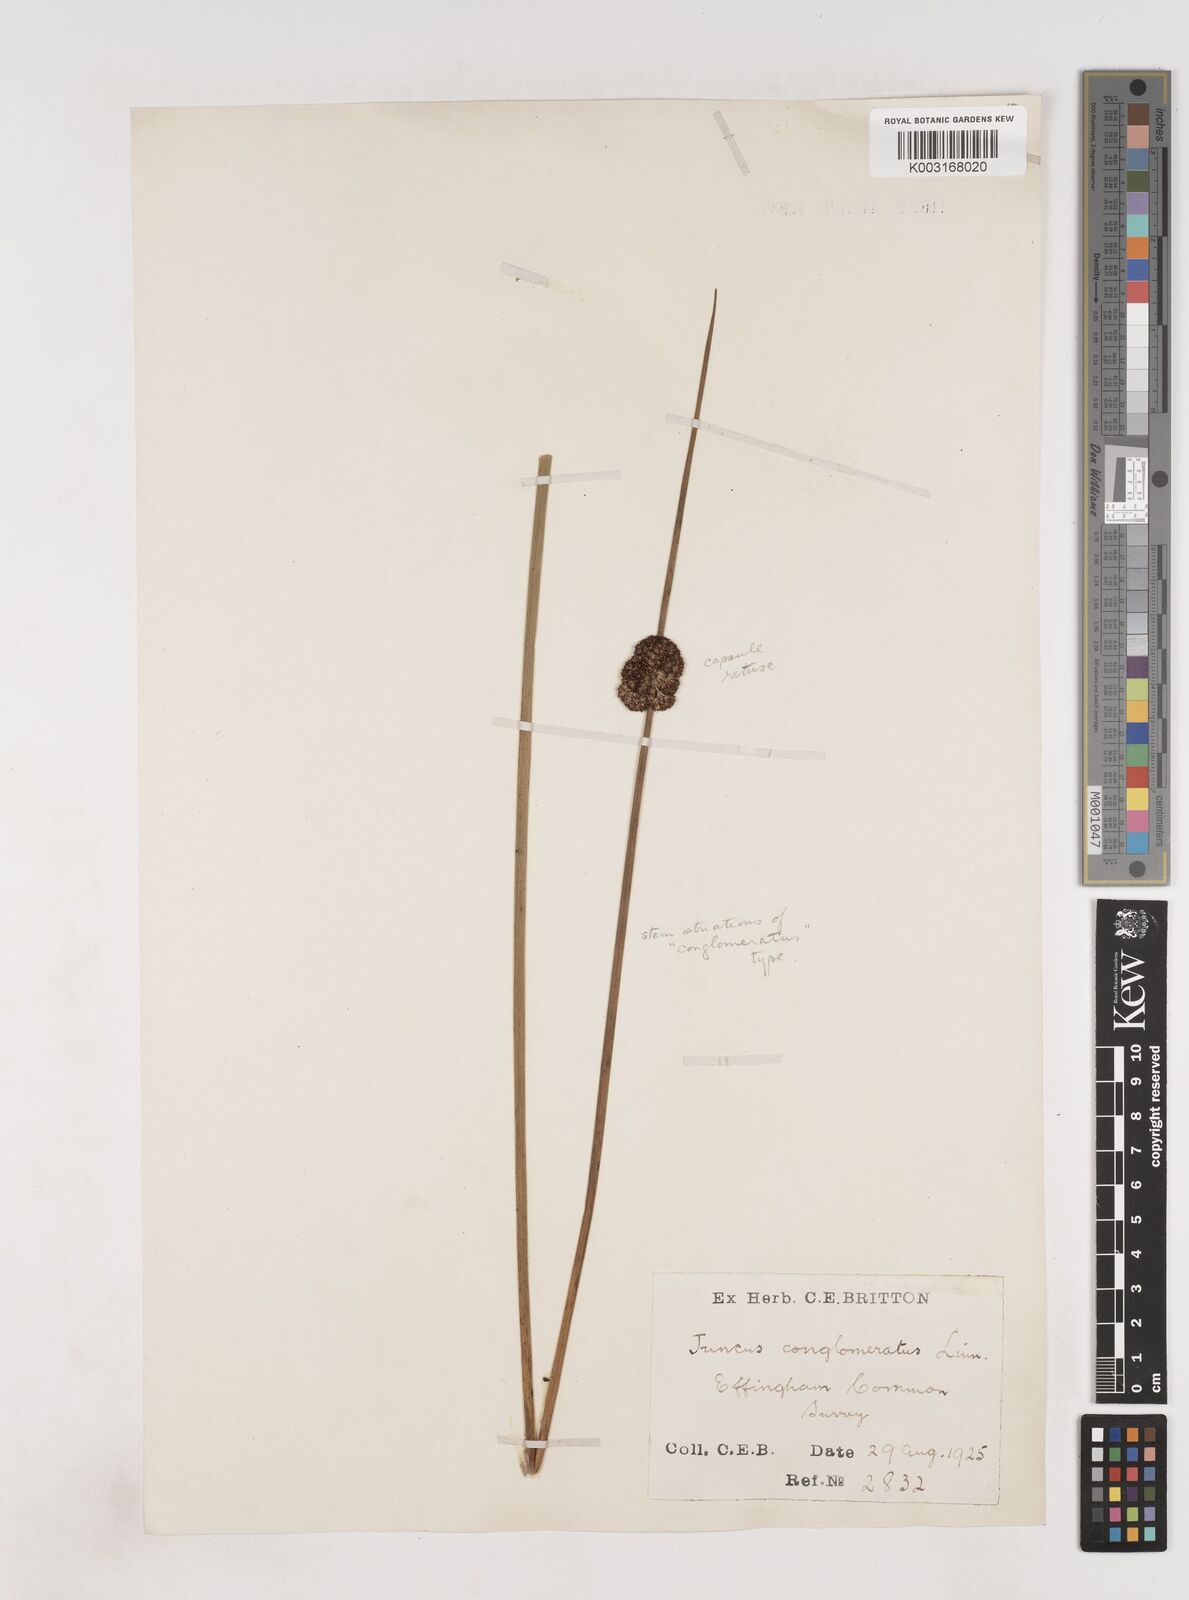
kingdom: Plantae
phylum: Tracheophyta
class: Liliopsida
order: Poales
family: Juncaceae
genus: Juncus
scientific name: Juncus conglomeratus
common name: Compact rush
